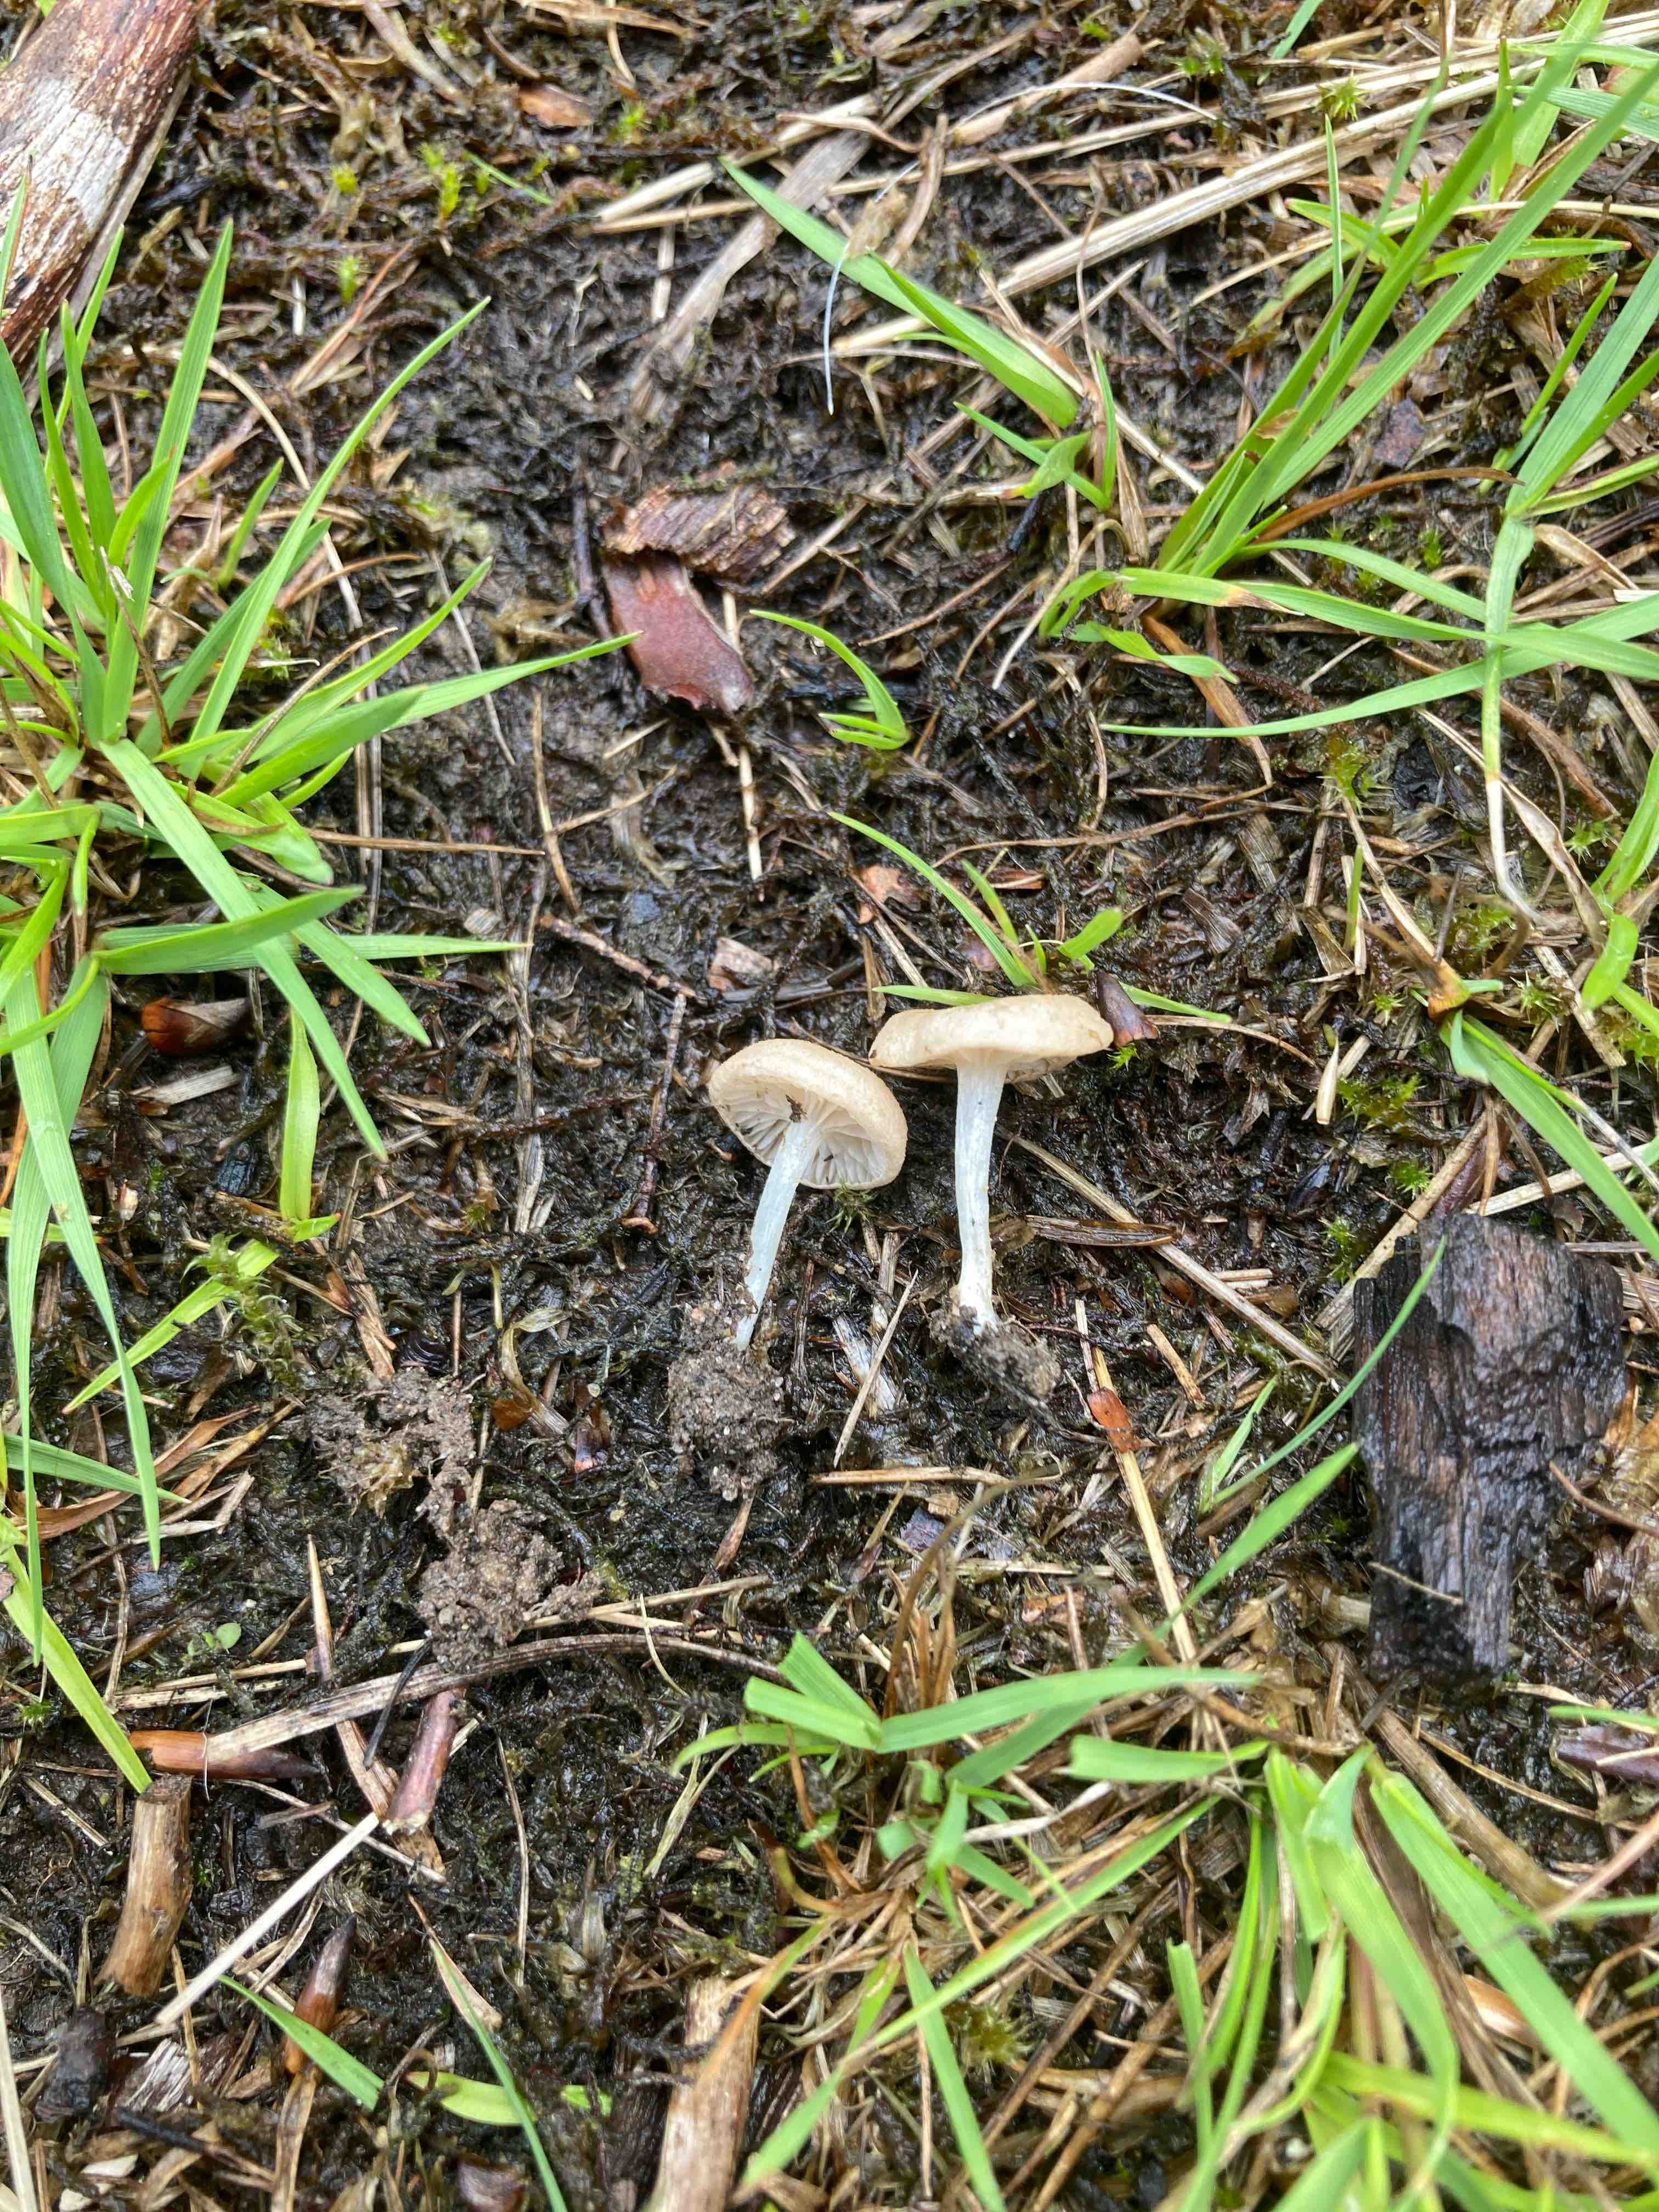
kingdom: Fungi
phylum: Basidiomycota
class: Agaricomycetes
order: Agaricales
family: Entolomataceae
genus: Entoloma
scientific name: Entoloma neglectum
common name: bleg rødblad
